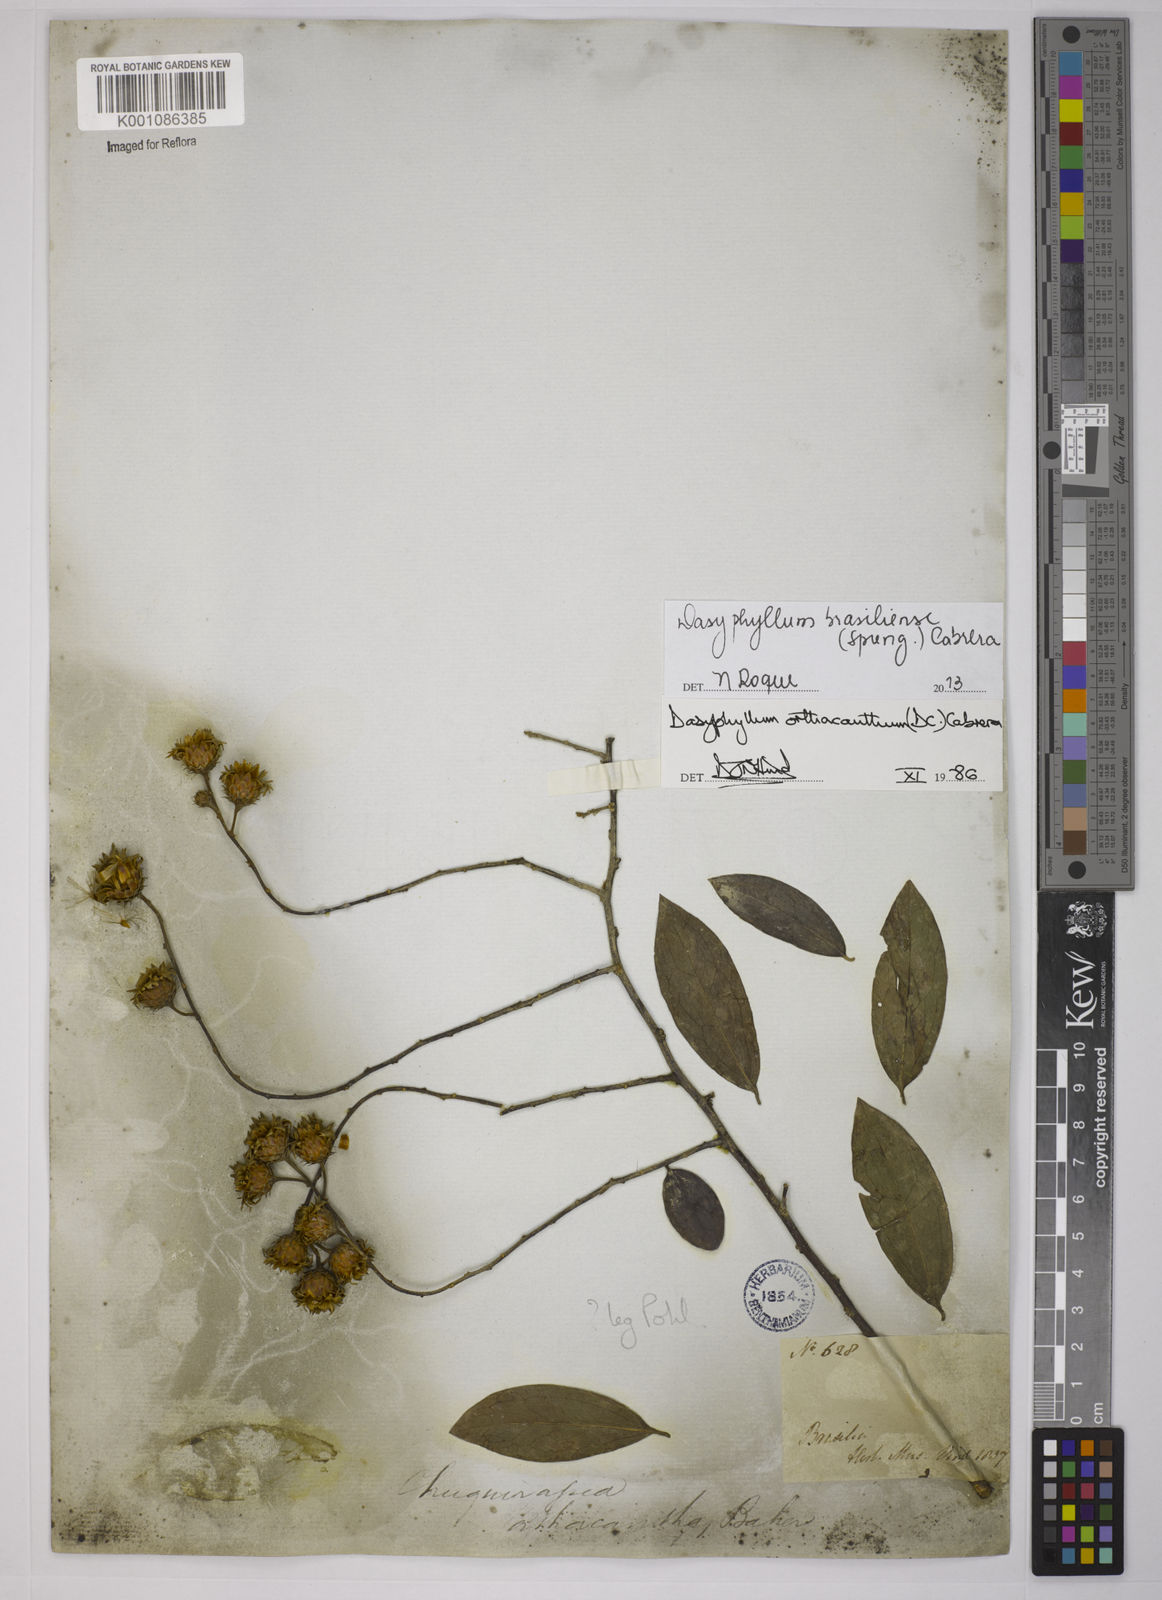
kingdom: Plantae
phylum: Tracheophyta
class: Magnoliopsida
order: Asterales
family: Asteraceae
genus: Dasyphyllum
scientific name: Dasyphyllum brasiliense
